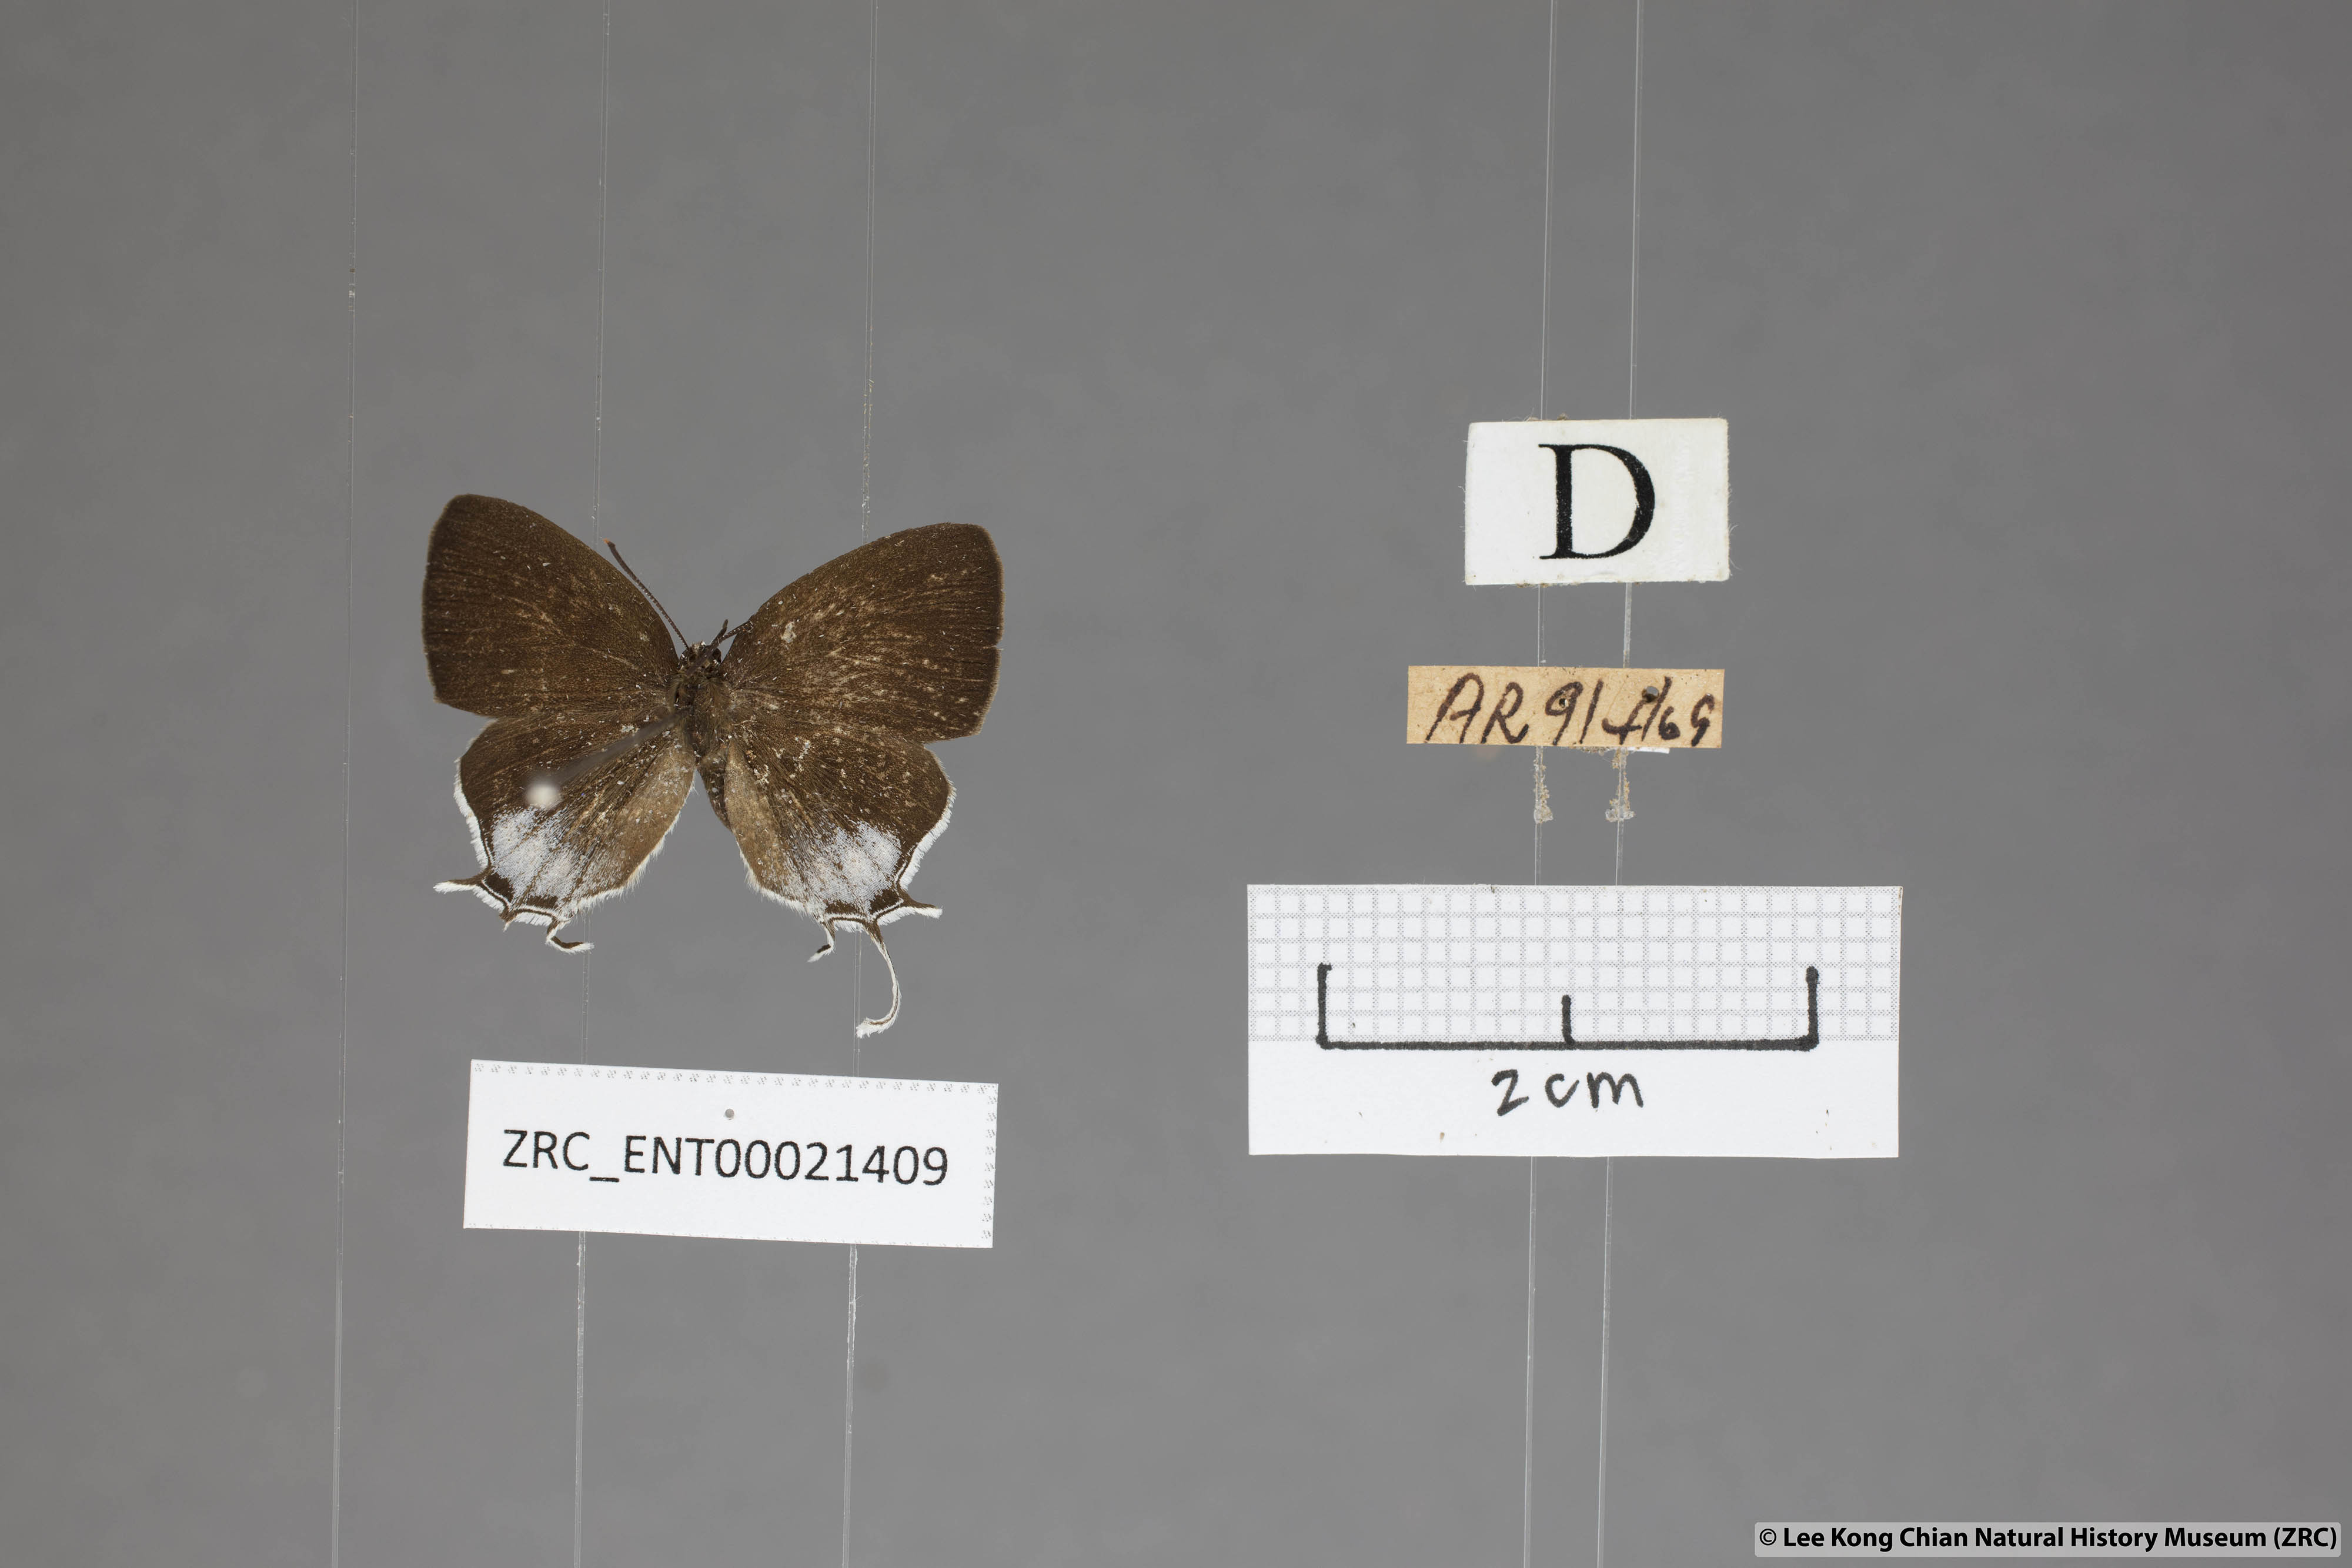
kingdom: Animalia
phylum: Arthropoda
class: Insecta
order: Lepidoptera
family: Lycaenidae
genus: Drupadia
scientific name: Drupadia scaeva
